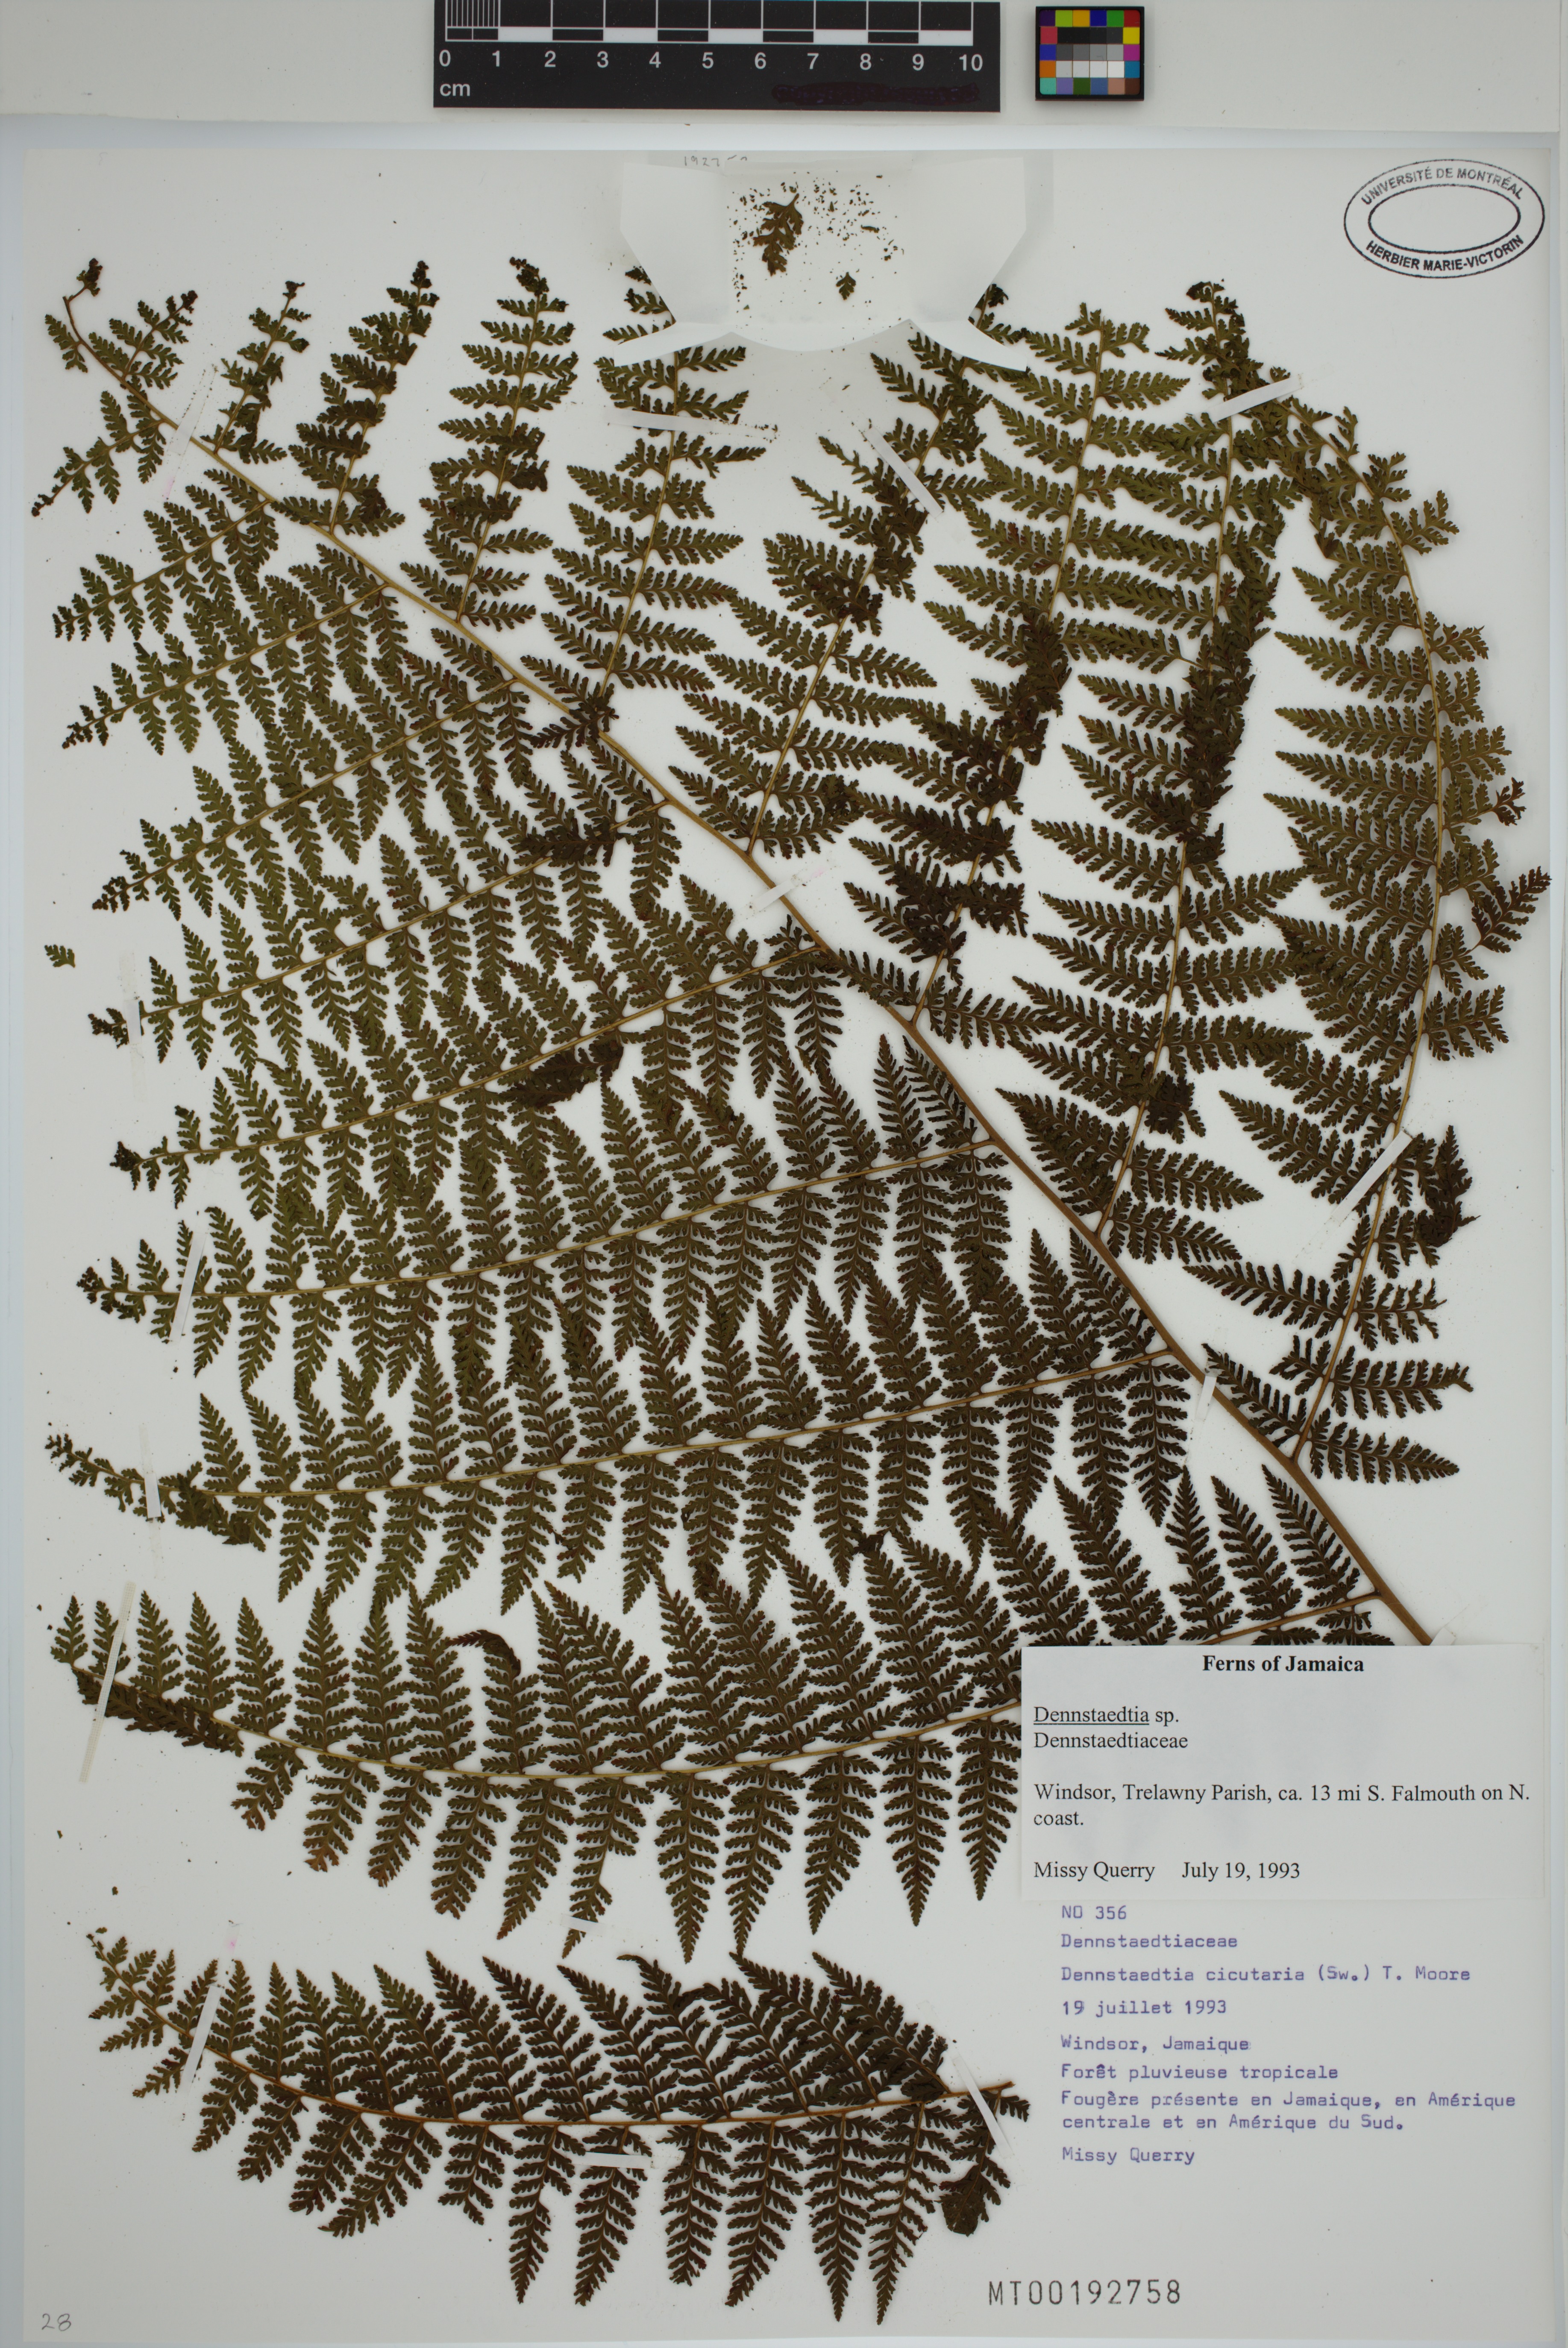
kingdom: Plantae
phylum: Tracheophyta
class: Polypodiopsida
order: Polypodiales
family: Dennstaedtiaceae
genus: Dennstaedtia
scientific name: Dennstaedtia cicutaria
